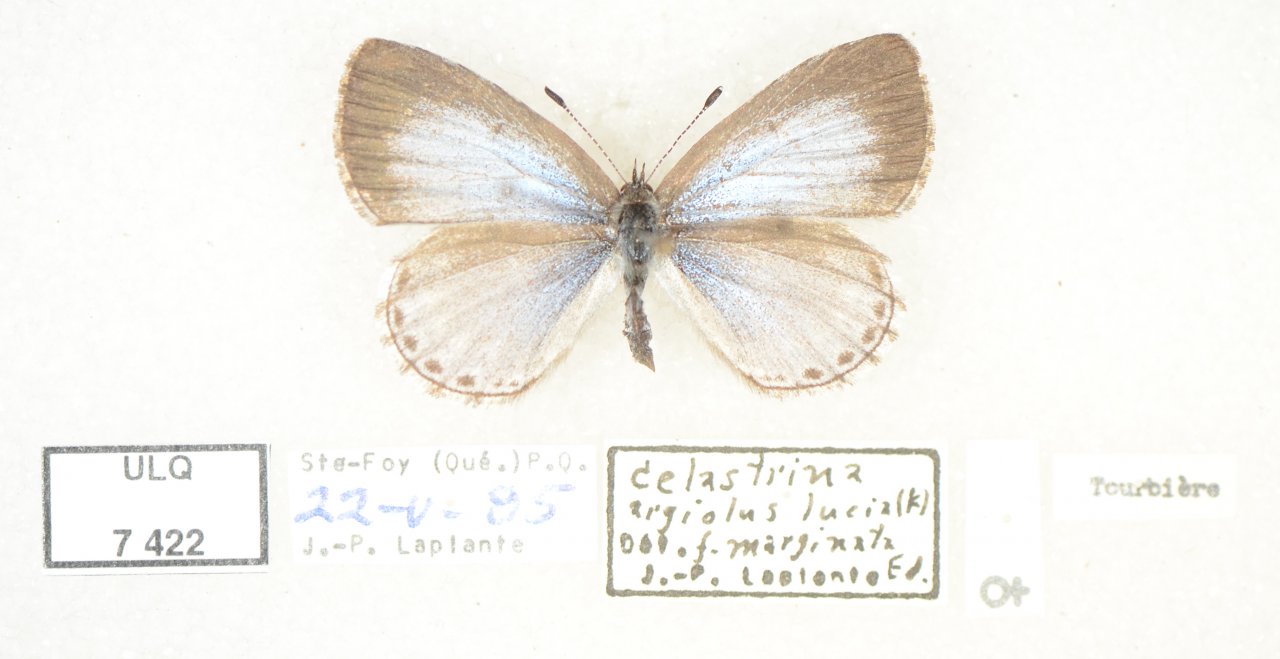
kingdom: Animalia
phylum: Arthropoda
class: Insecta
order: Lepidoptera
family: Lycaenidae
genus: Celastrina
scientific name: Celastrina lucia
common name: Northern Spring Azure
